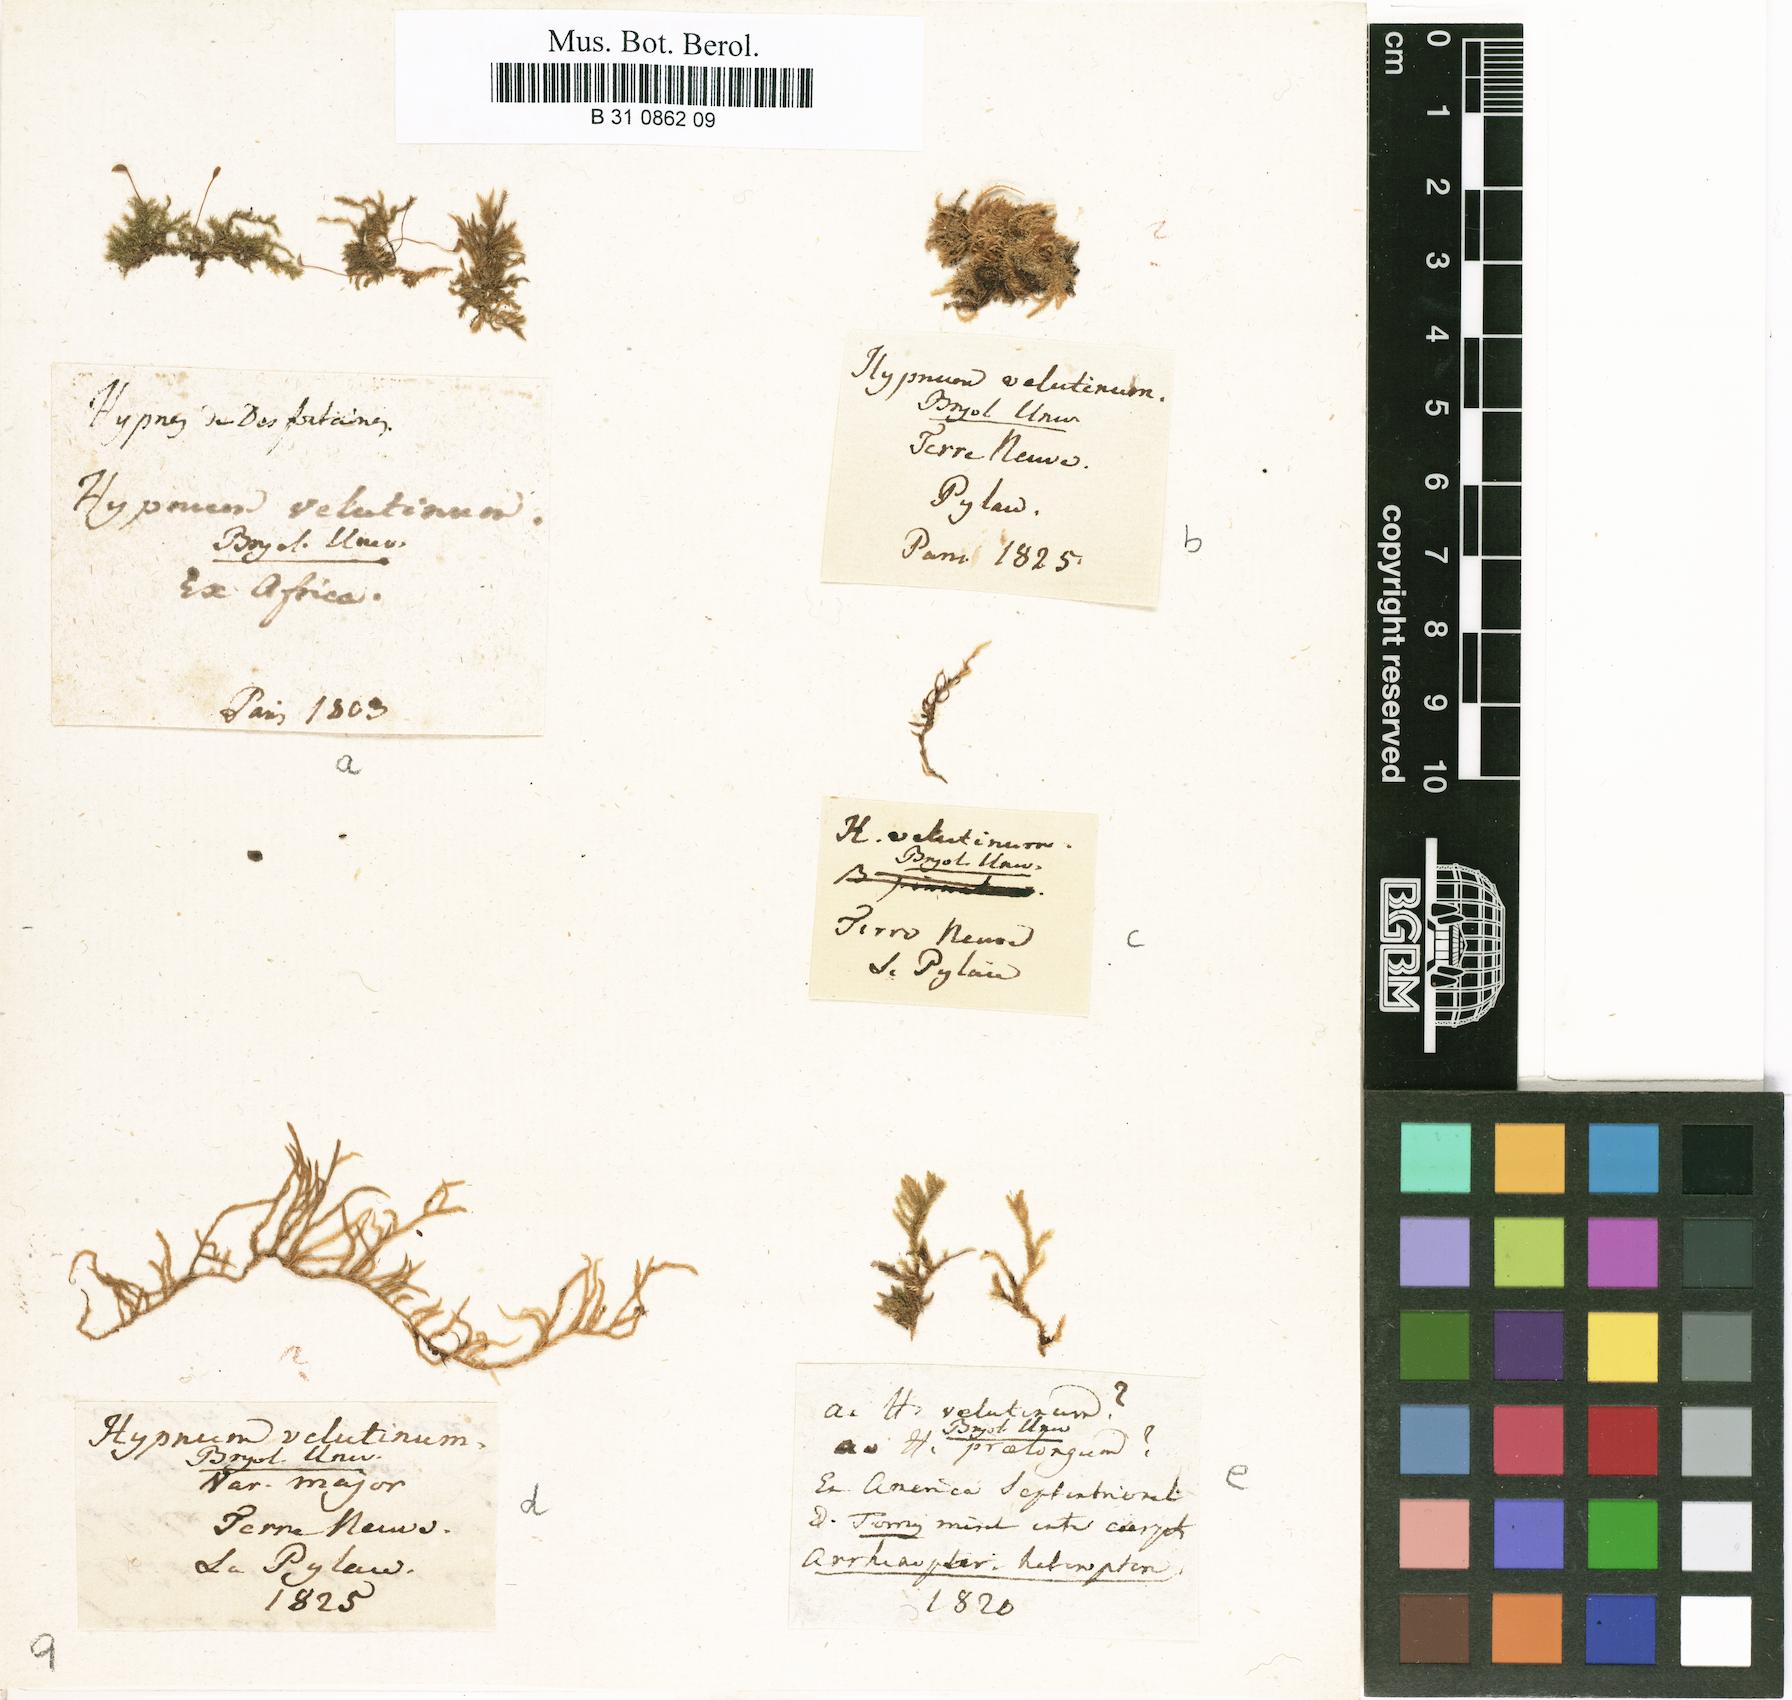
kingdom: Plantae
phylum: Bryophyta
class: Bryopsida
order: Hypnales
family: Brachytheciaceae
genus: Brachytheciastrum
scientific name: Brachytheciastrum velutinum
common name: Velvet feather-moss
